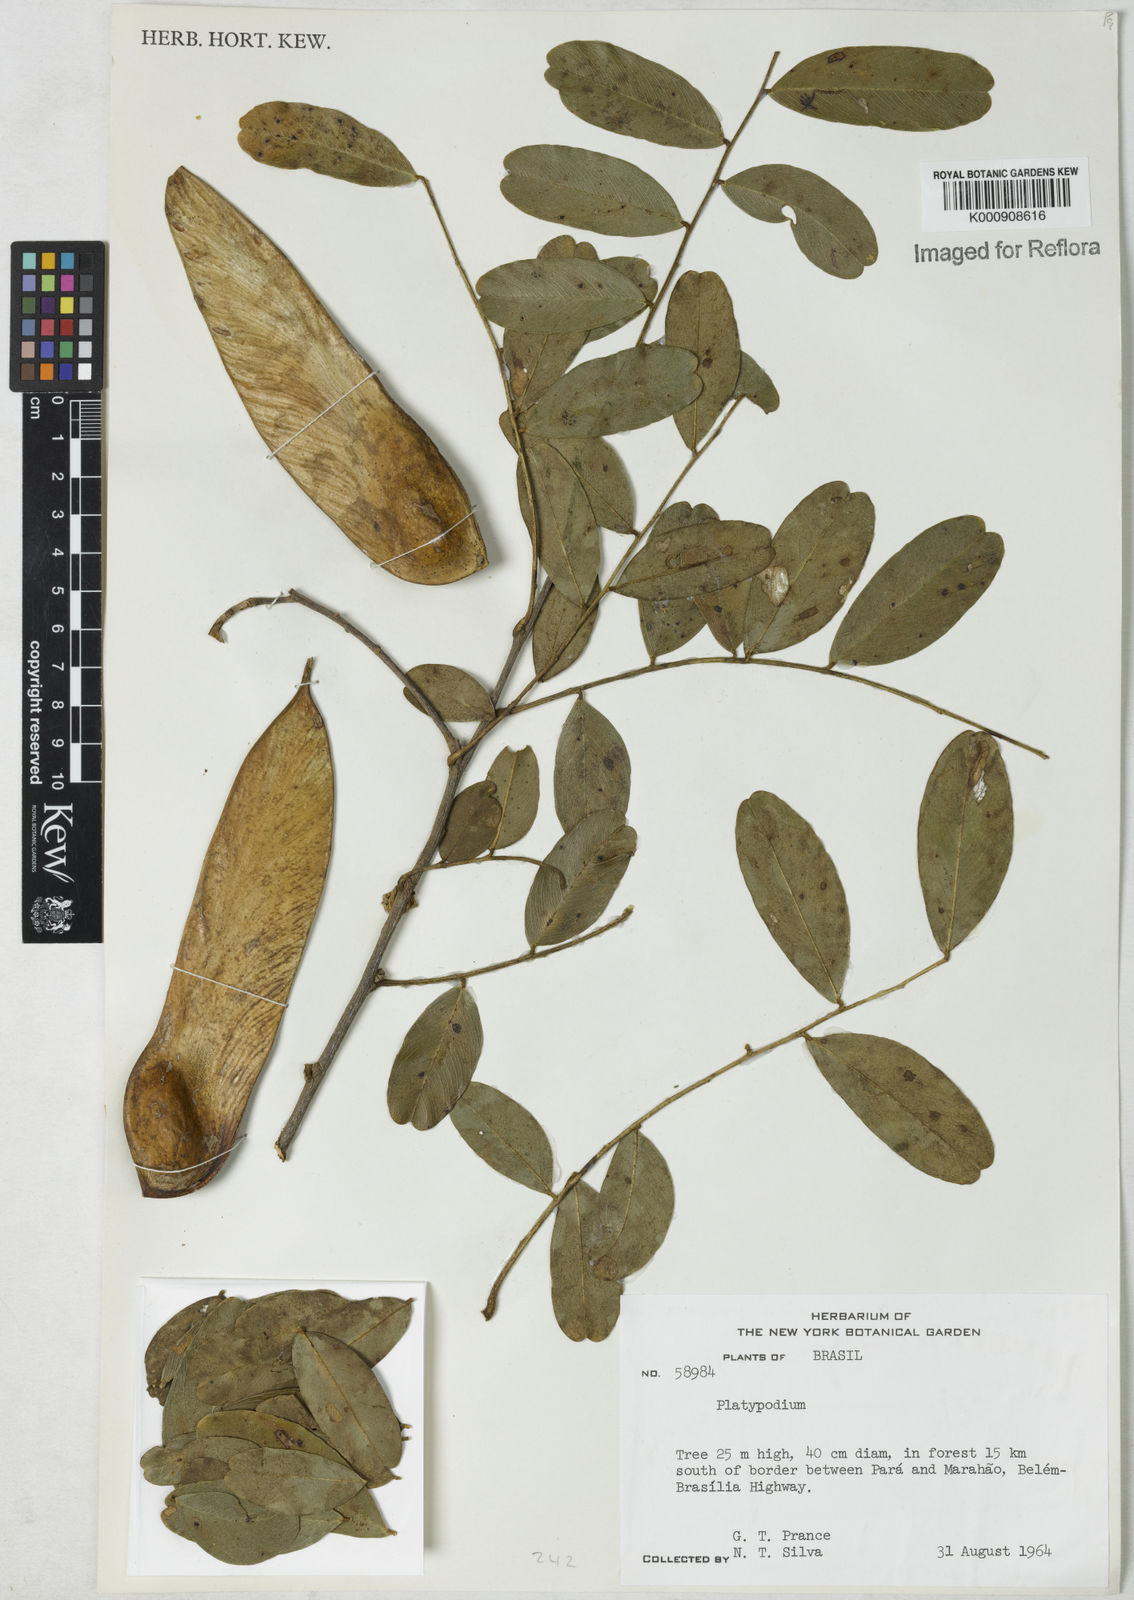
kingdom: Plantae
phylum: Tracheophyta
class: Magnoliopsida
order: Fabales
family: Fabaceae
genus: Platypodium
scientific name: Platypodium
